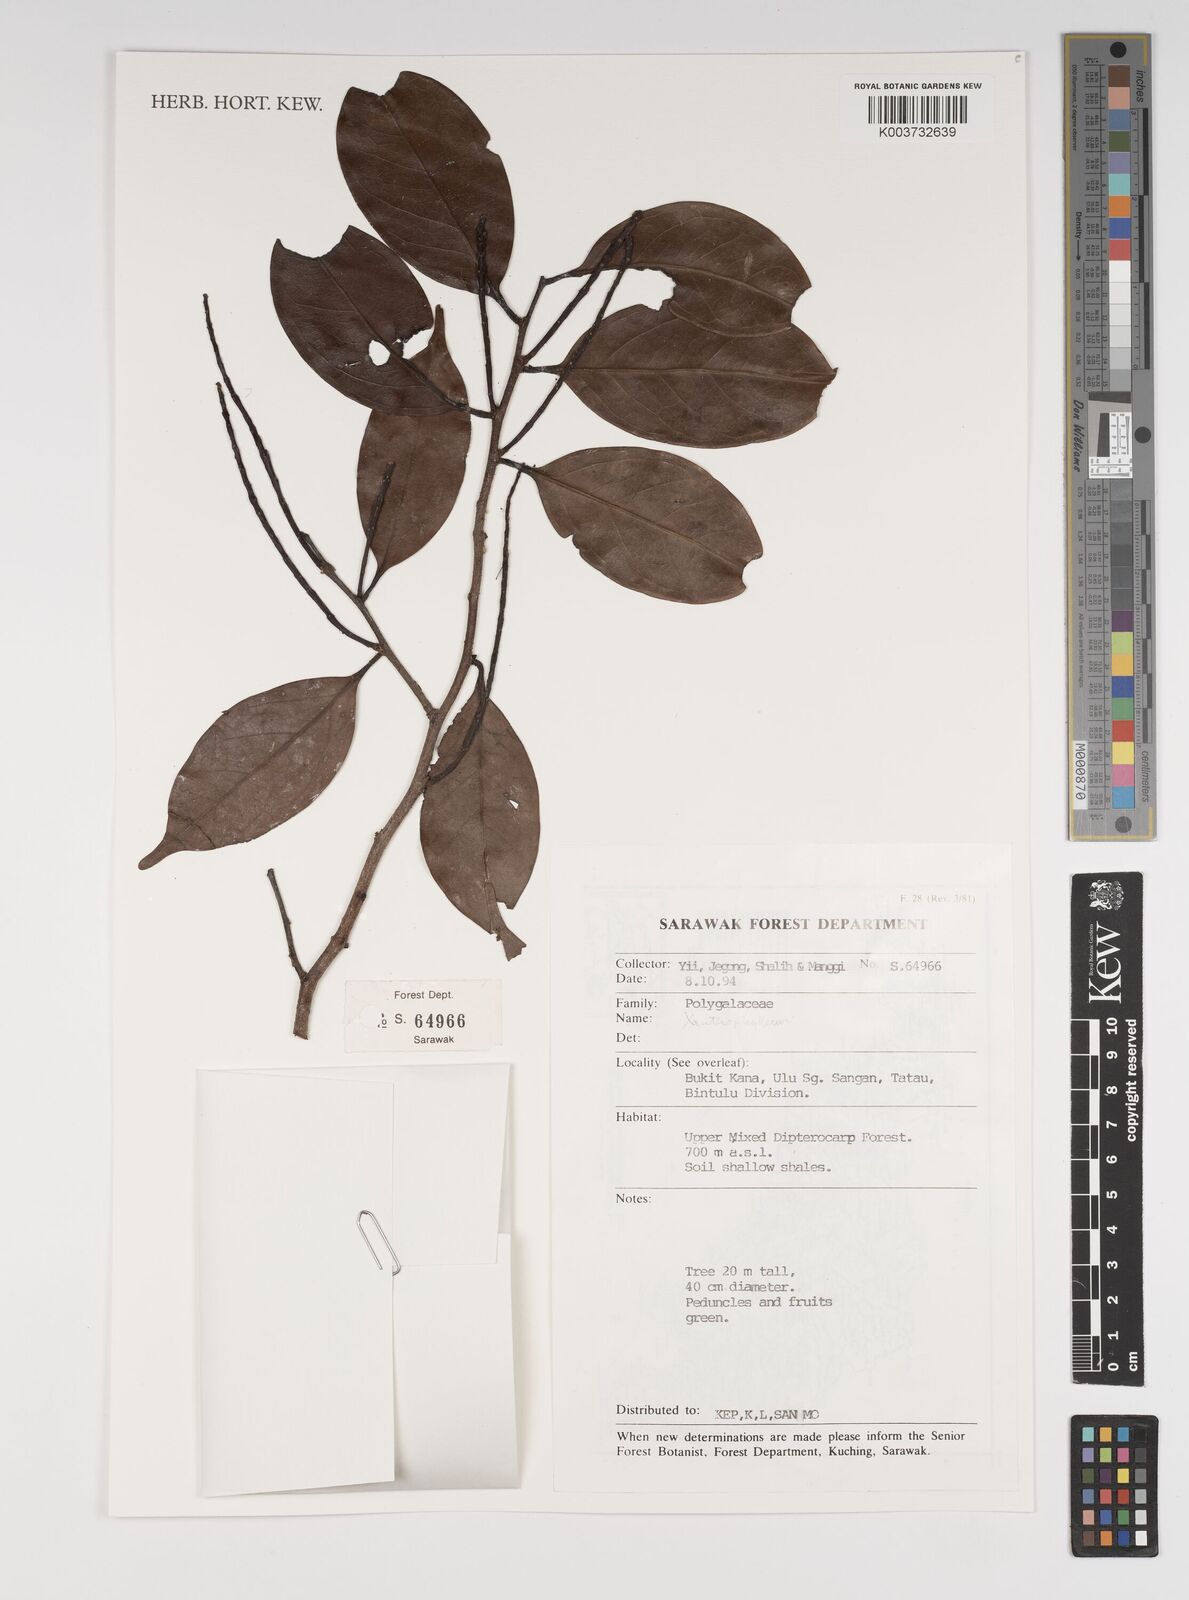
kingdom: Plantae
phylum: Tracheophyta
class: Magnoliopsida
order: Fabales
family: Polygalaceae
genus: Xanthophyllum
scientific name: Xanthophyllum
